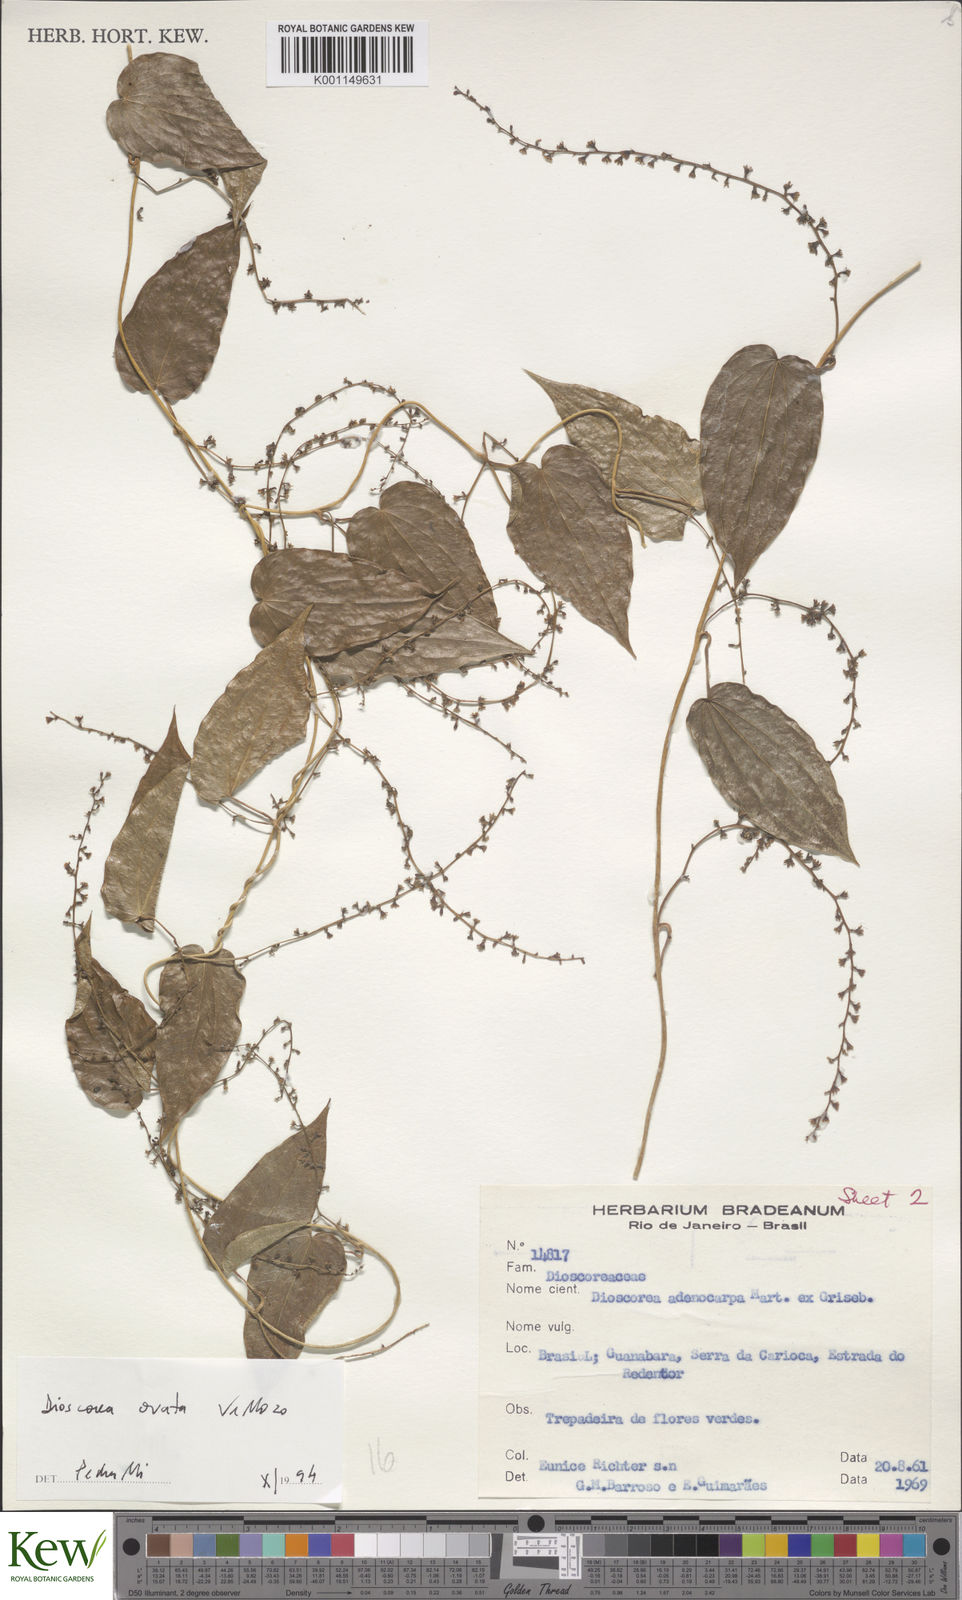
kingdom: Plantae
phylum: Tracheophyta
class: Liliopsida
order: Dioscoreales
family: Dioscoreaceae
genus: Dioscorea
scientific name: Dioscorea ovata
